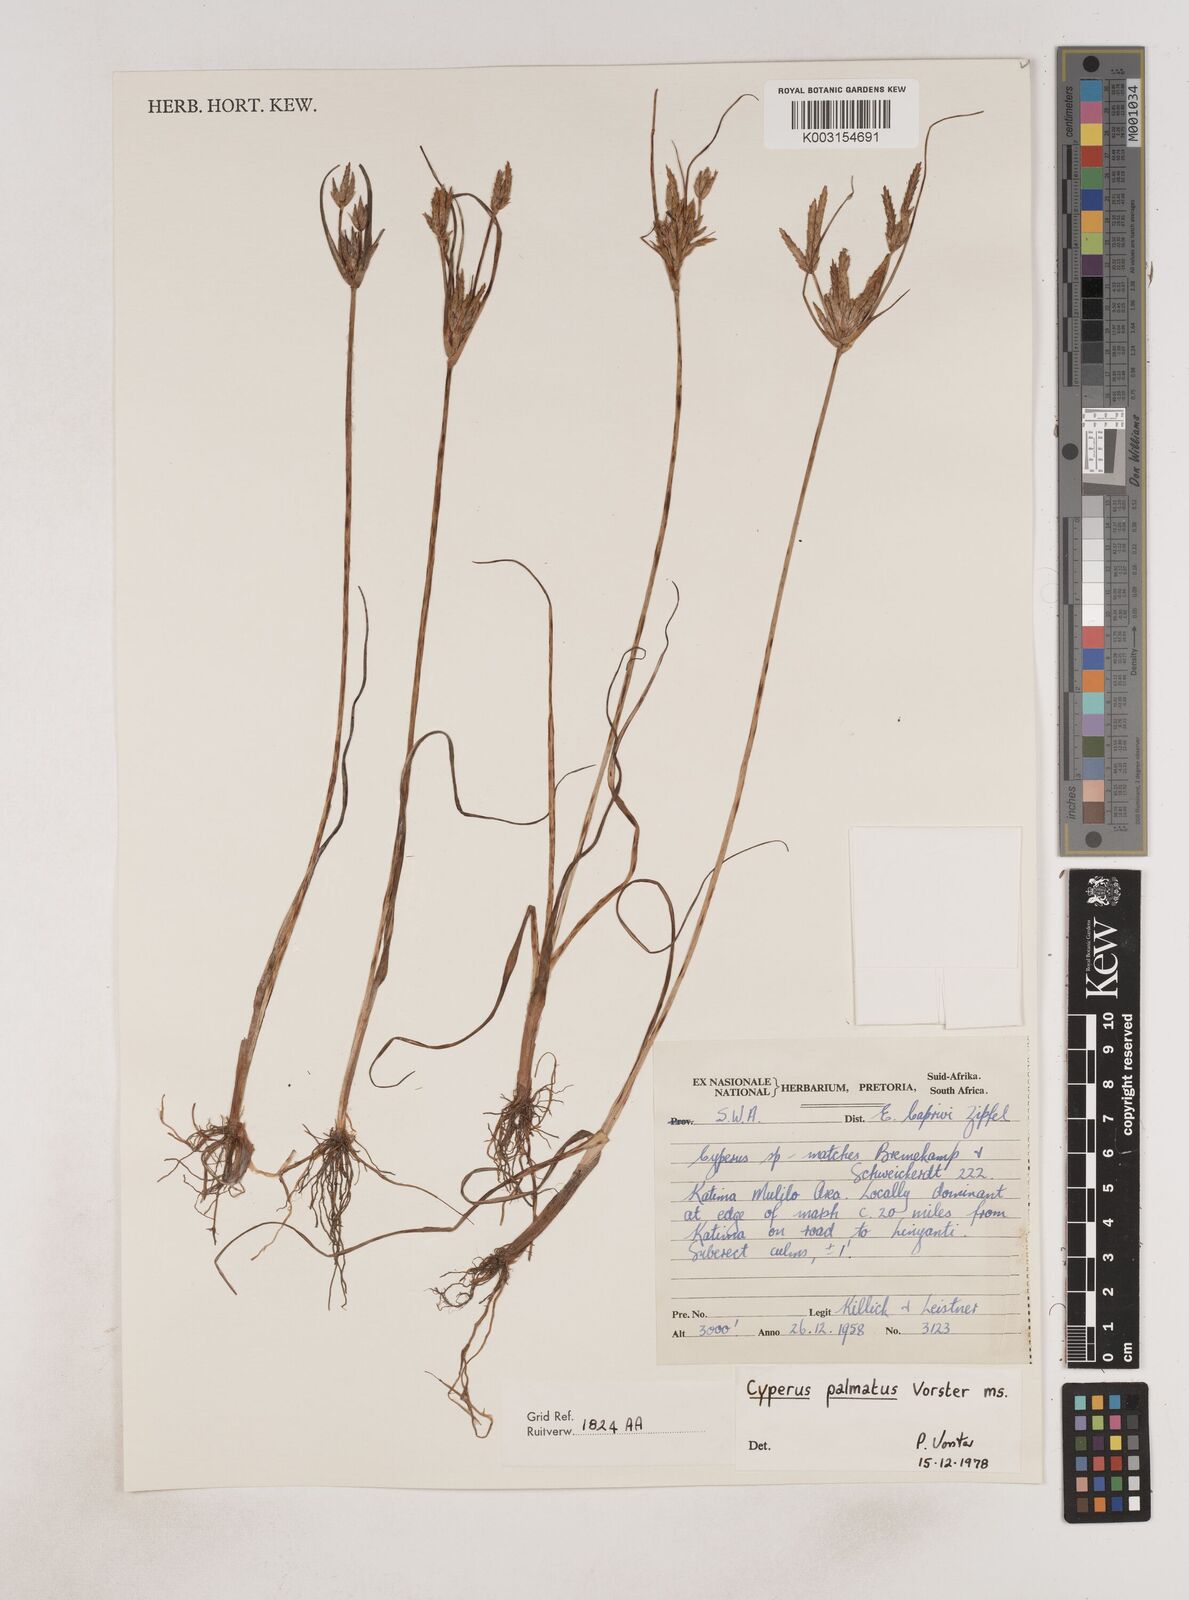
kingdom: Plantae
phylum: Tracheophyta
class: Liliopsida
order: Poales
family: Cyperaceae
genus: Cyperus
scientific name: Cyperus
